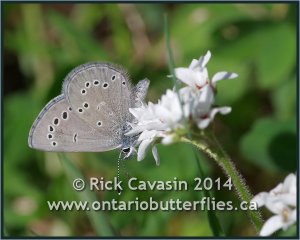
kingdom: Animalia
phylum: Arthropoda
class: Insecta
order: Lepidoptera
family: Lycaenidae
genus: Glaucopsyche
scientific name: Glaucopsyche lygdamus
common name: Silvery Blue
